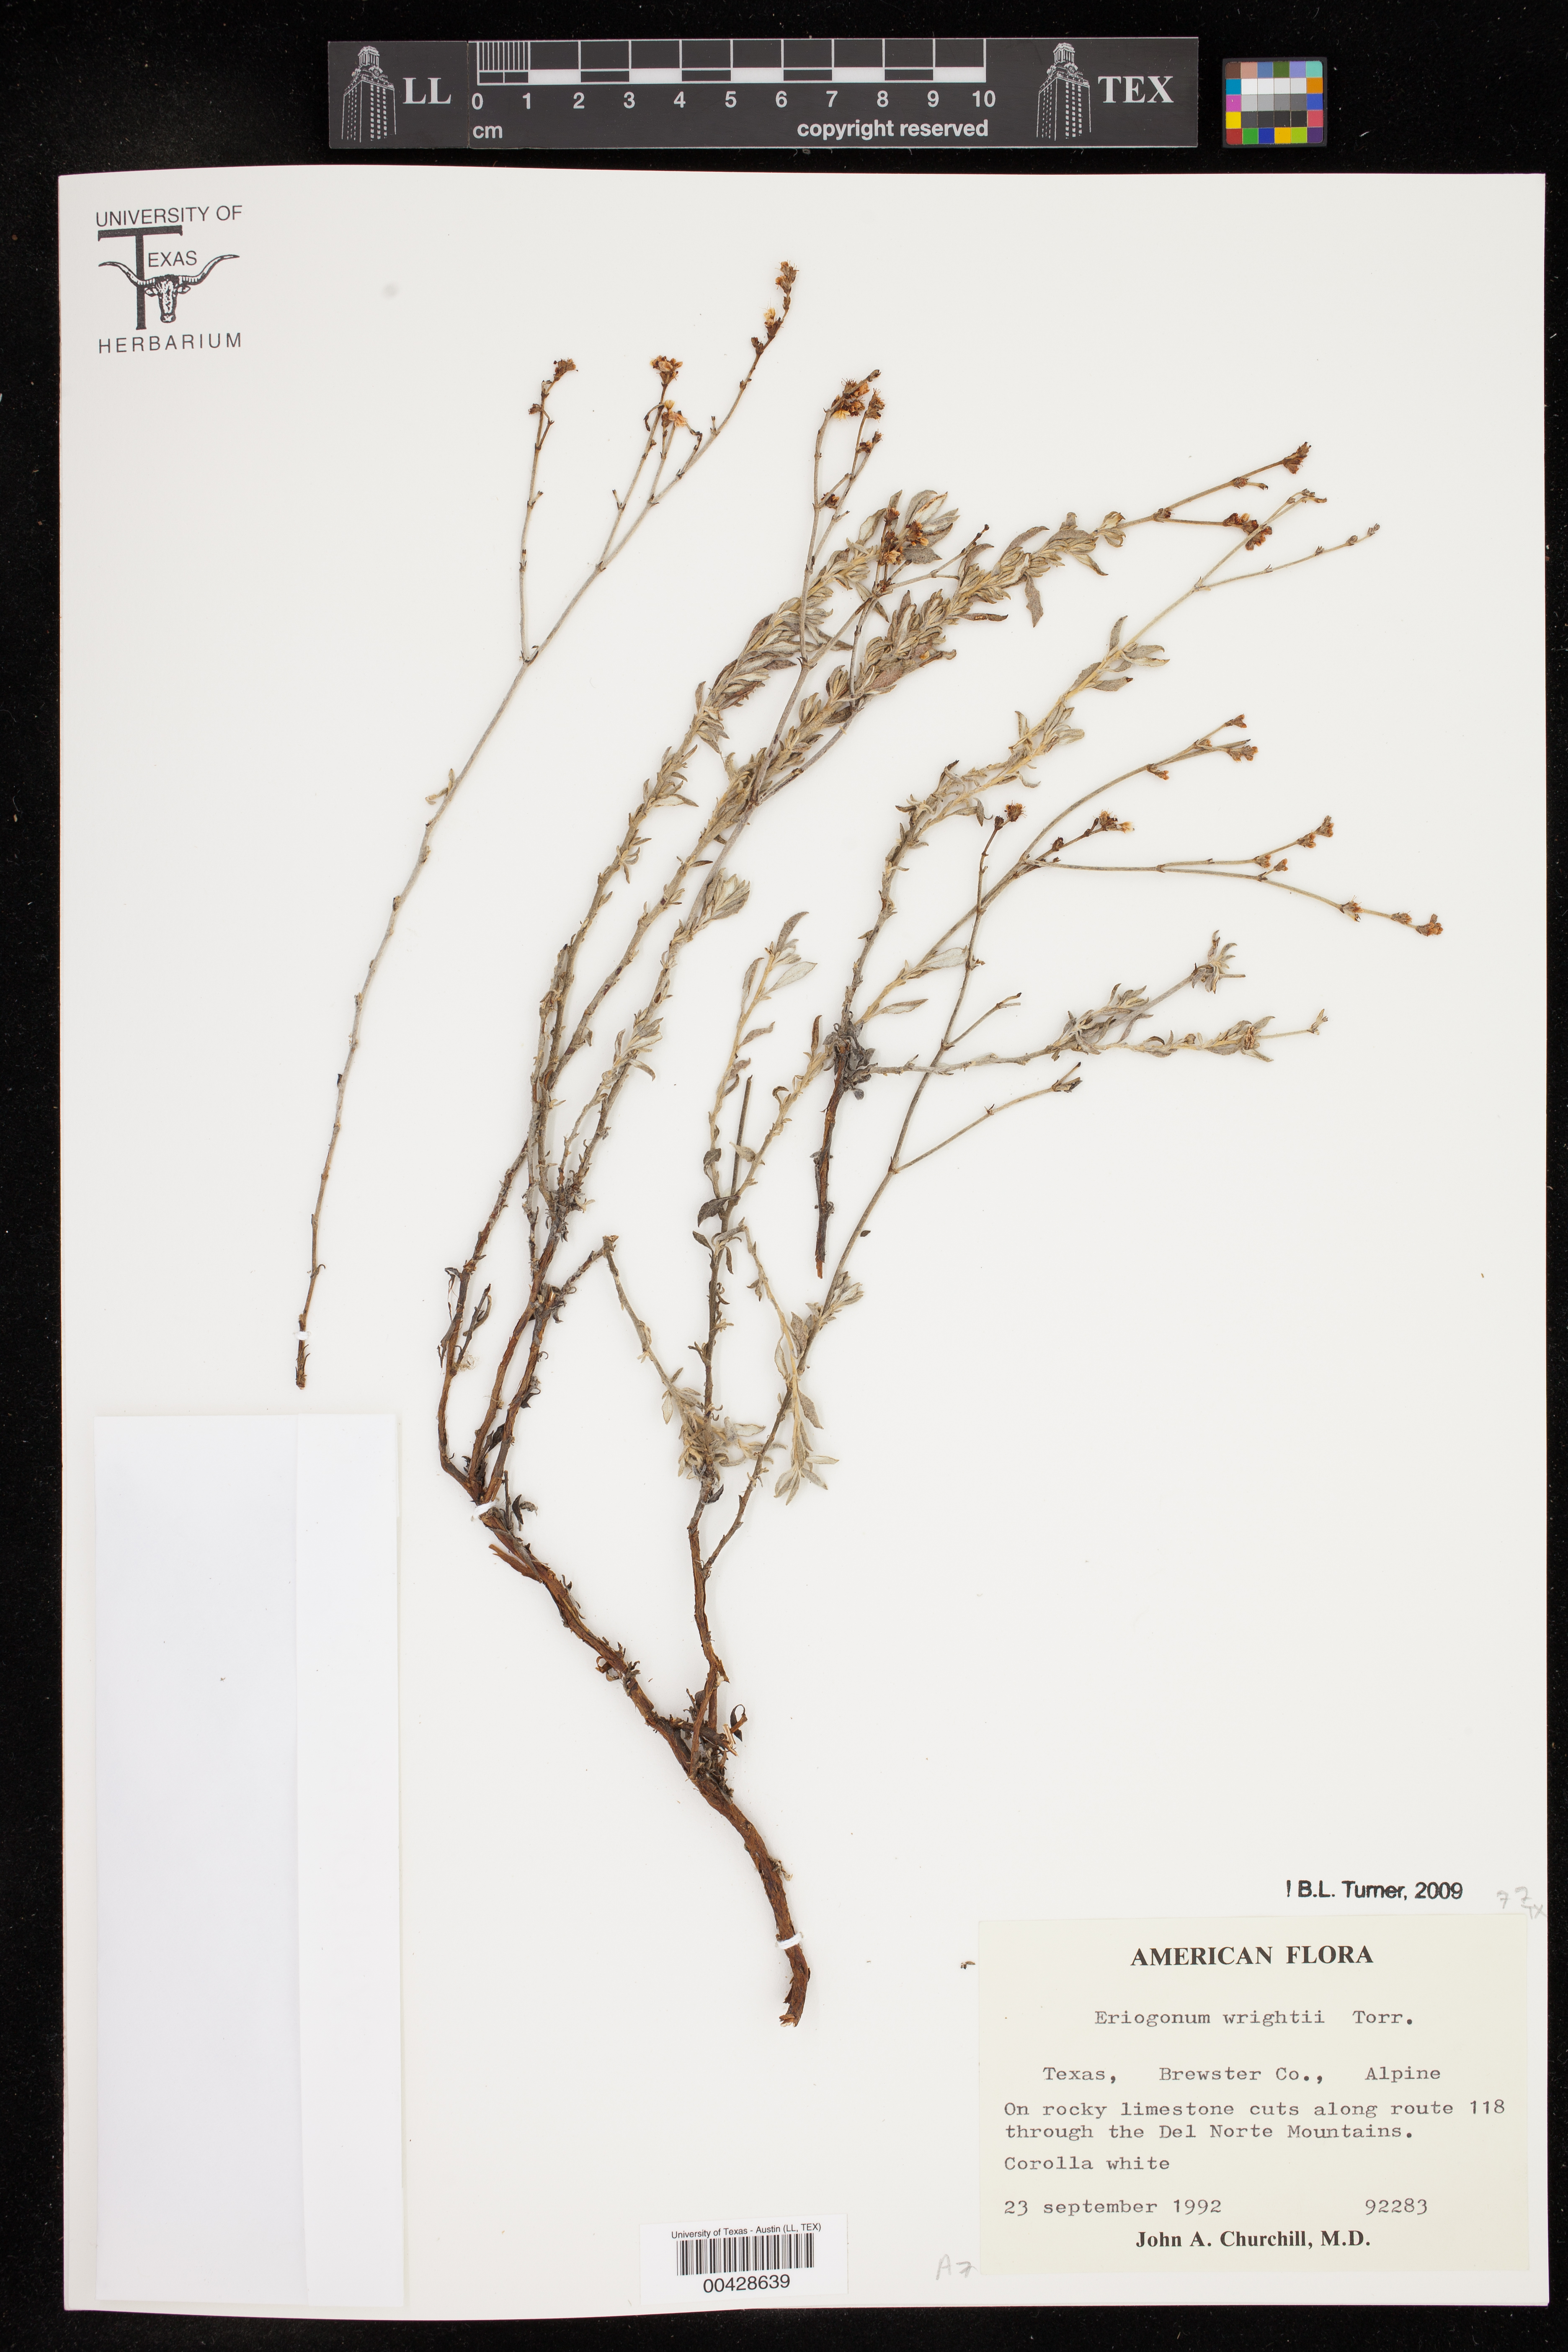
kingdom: Plantae
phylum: Tracheophyta
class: Magnoliopsida
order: Caryophyllales
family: Polygonaceae
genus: Eriogonum
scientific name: Eriogonum wrightii
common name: Bastard-sage
